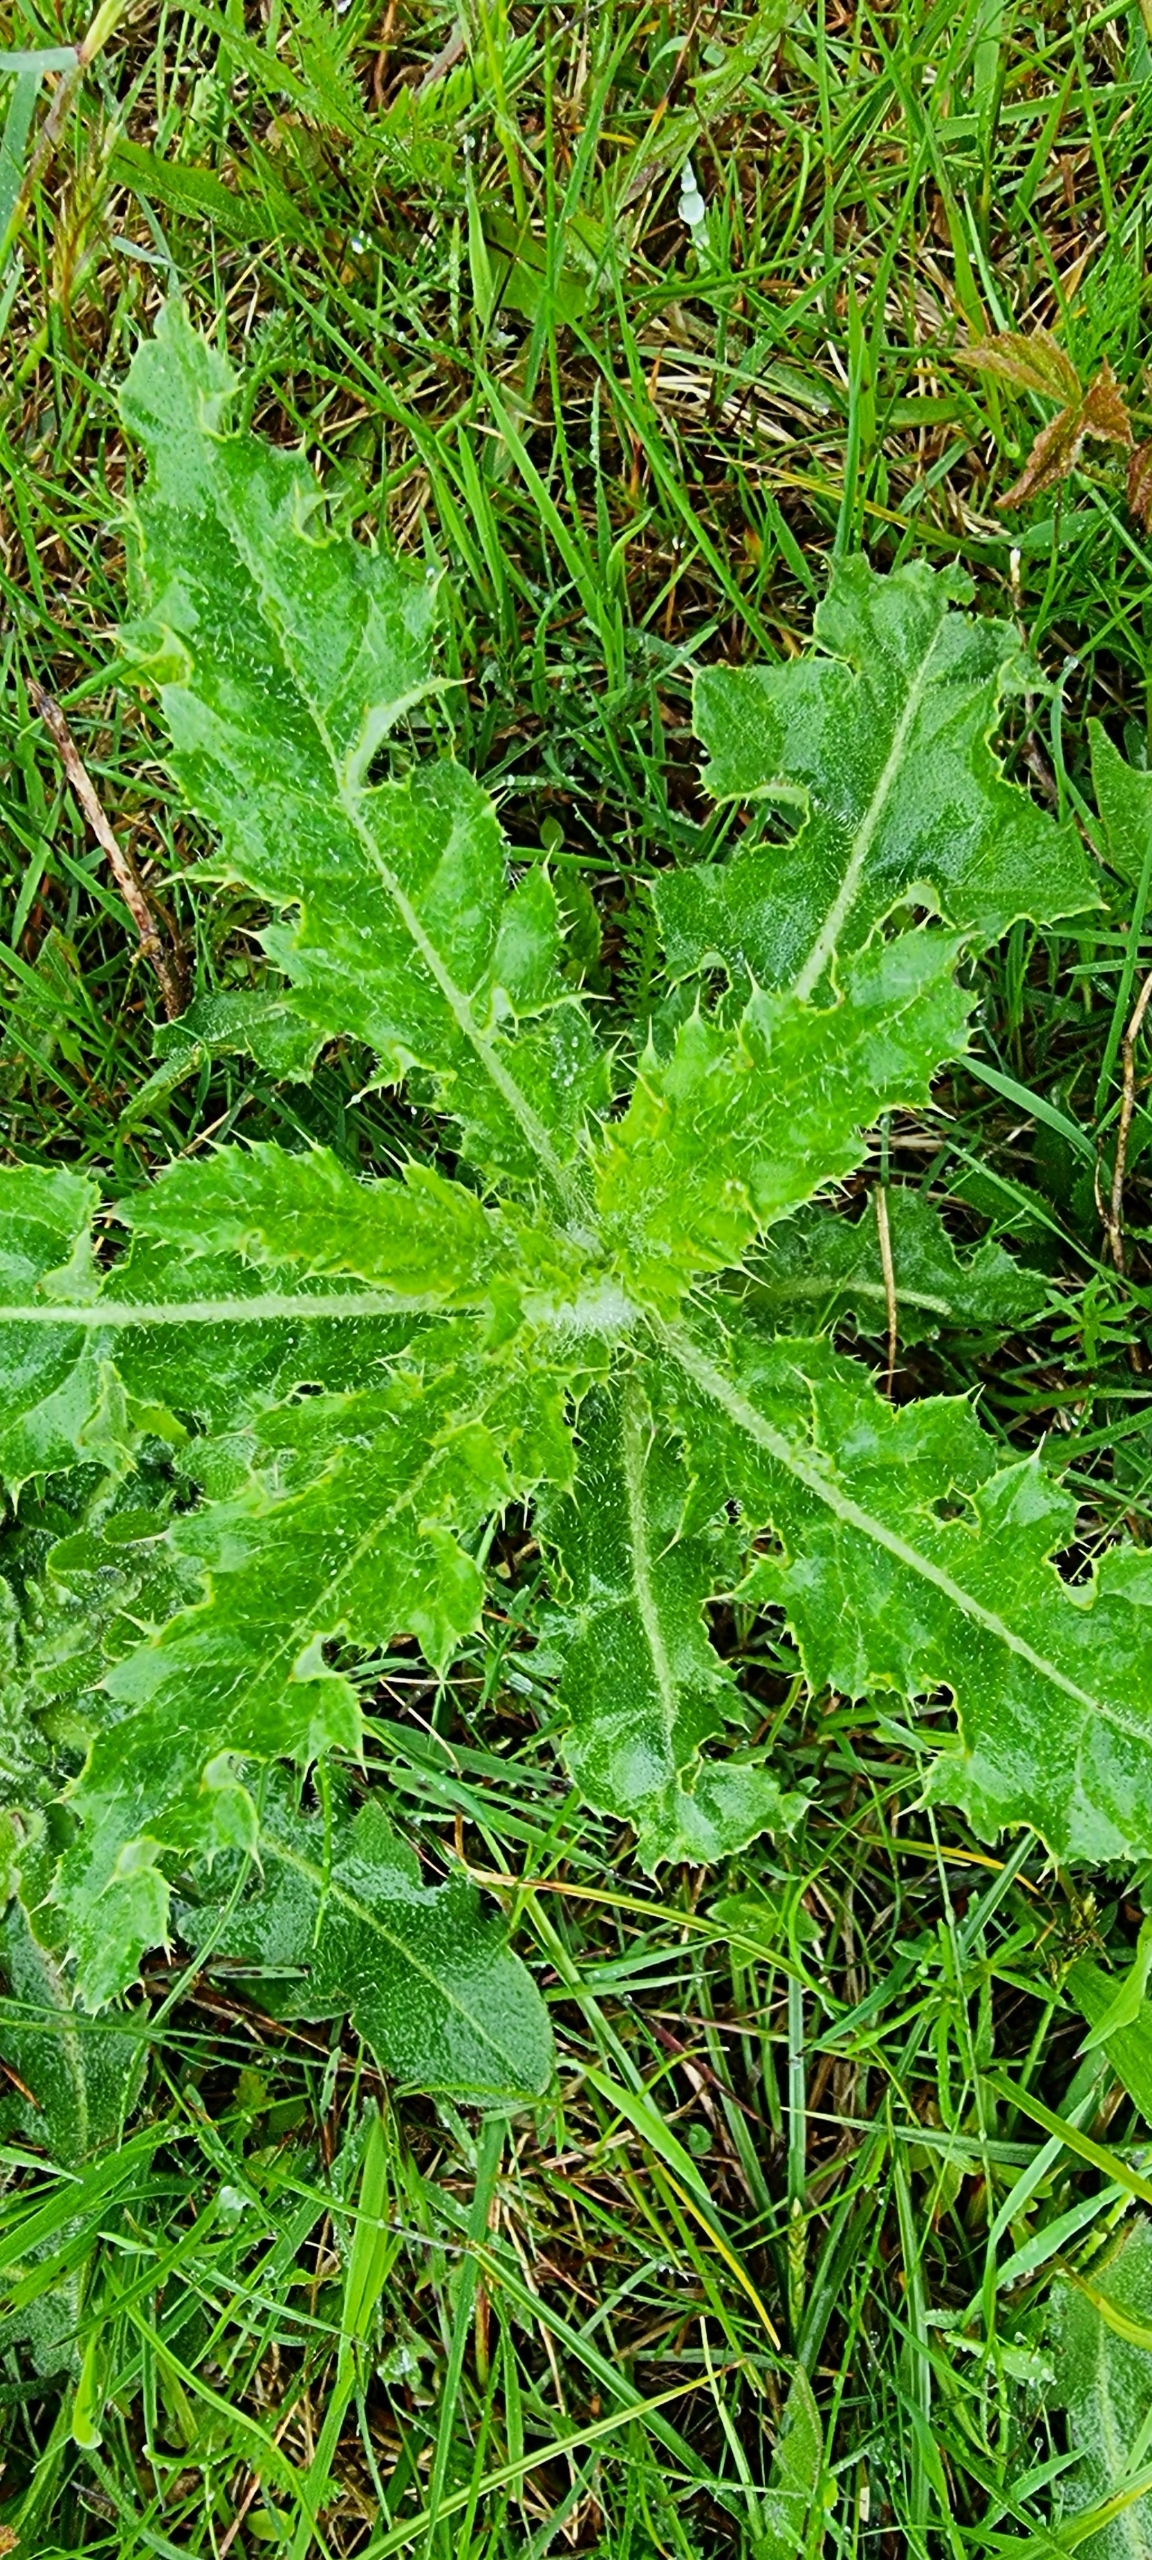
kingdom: Plantae
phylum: Tracheophyta
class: Magnoliopsida
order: Asterales
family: Asteraceae
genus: Cirsium
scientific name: Cirsium arvense
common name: Ager-tidsel
